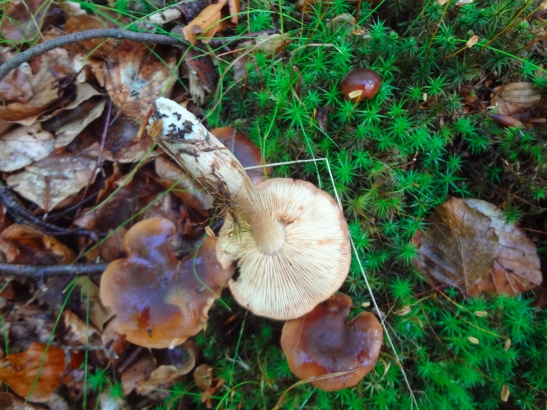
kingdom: Fungi
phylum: Basidiomycota
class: Agaricomycetes
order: Agaricales
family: Tricholomataceae
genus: Tricholoma
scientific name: Tricholoma ustale
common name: sveden ridderhat
